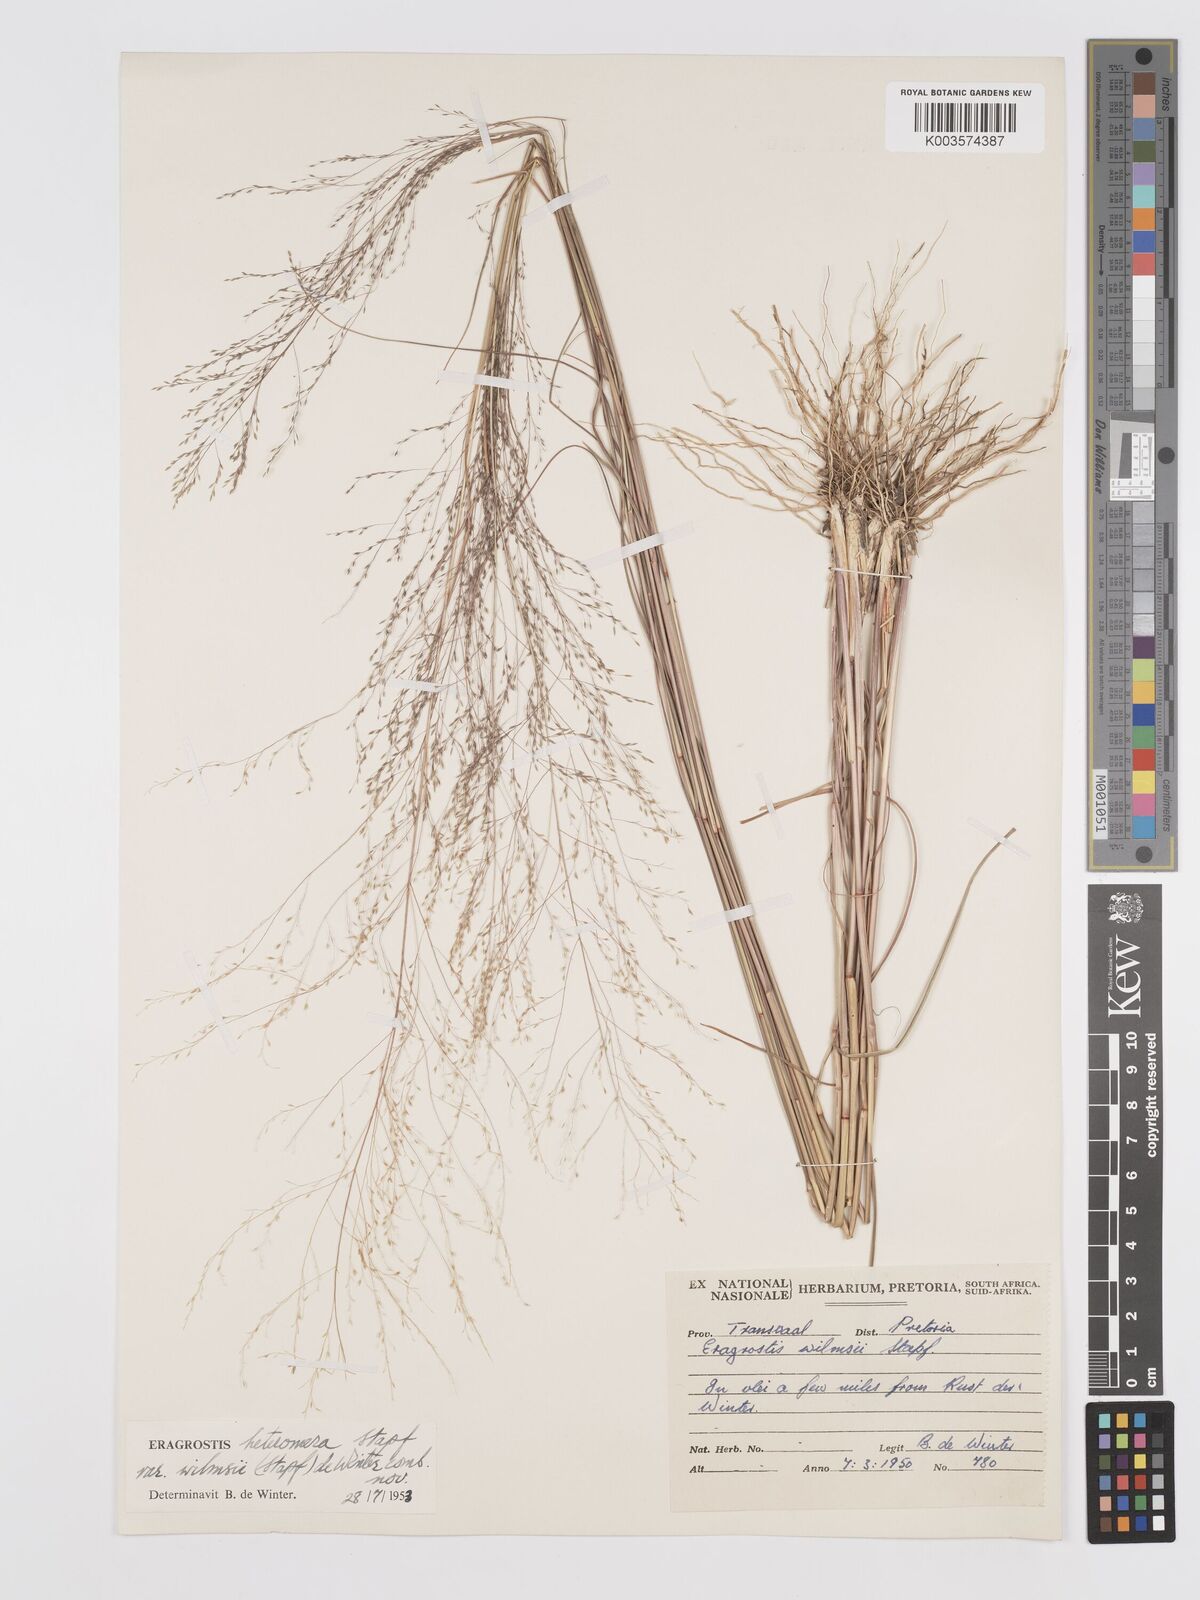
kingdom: Plantae
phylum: Tracheophyta
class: Liliopsida
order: Poales
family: Poaceae
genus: Eragrostis
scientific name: Eragrostis heteromera
